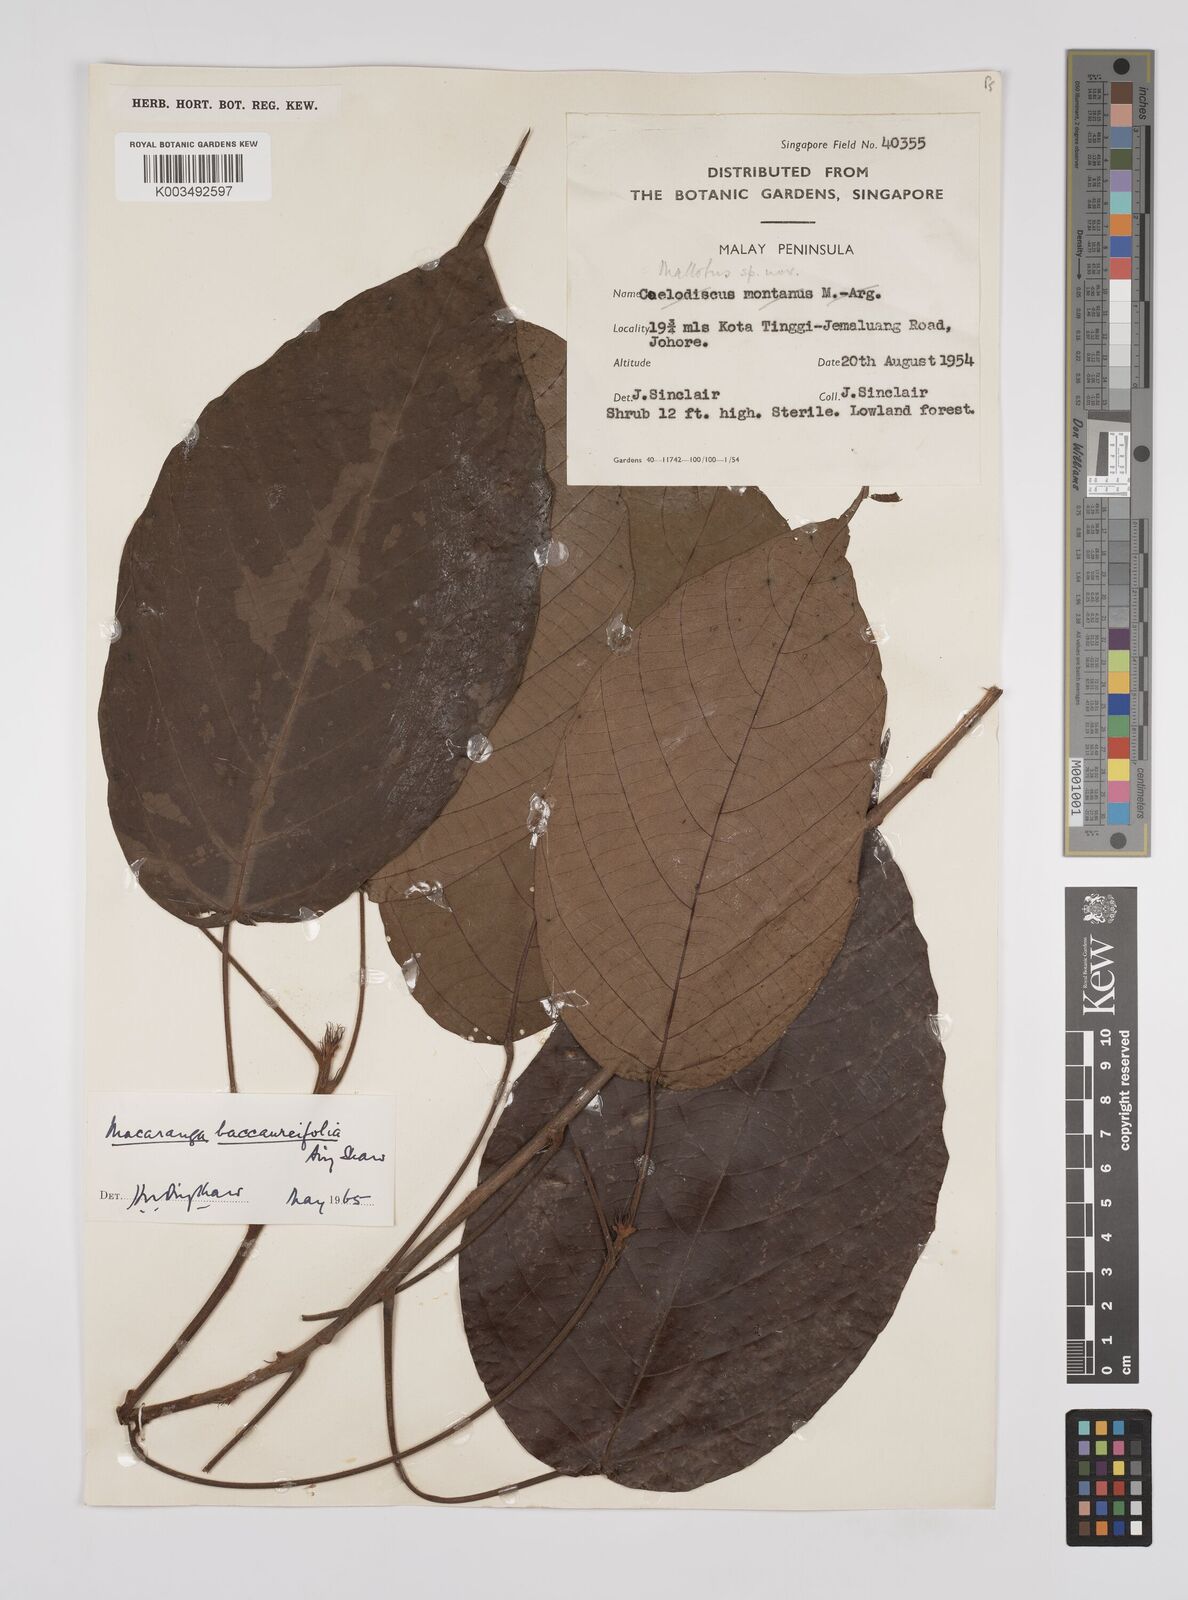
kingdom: Plantae
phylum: Tracheophyta
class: Magnoliopsida
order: Malpighiales
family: Euphorbiaceae
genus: Macaranga
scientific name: Macaranga baccaureifolia
